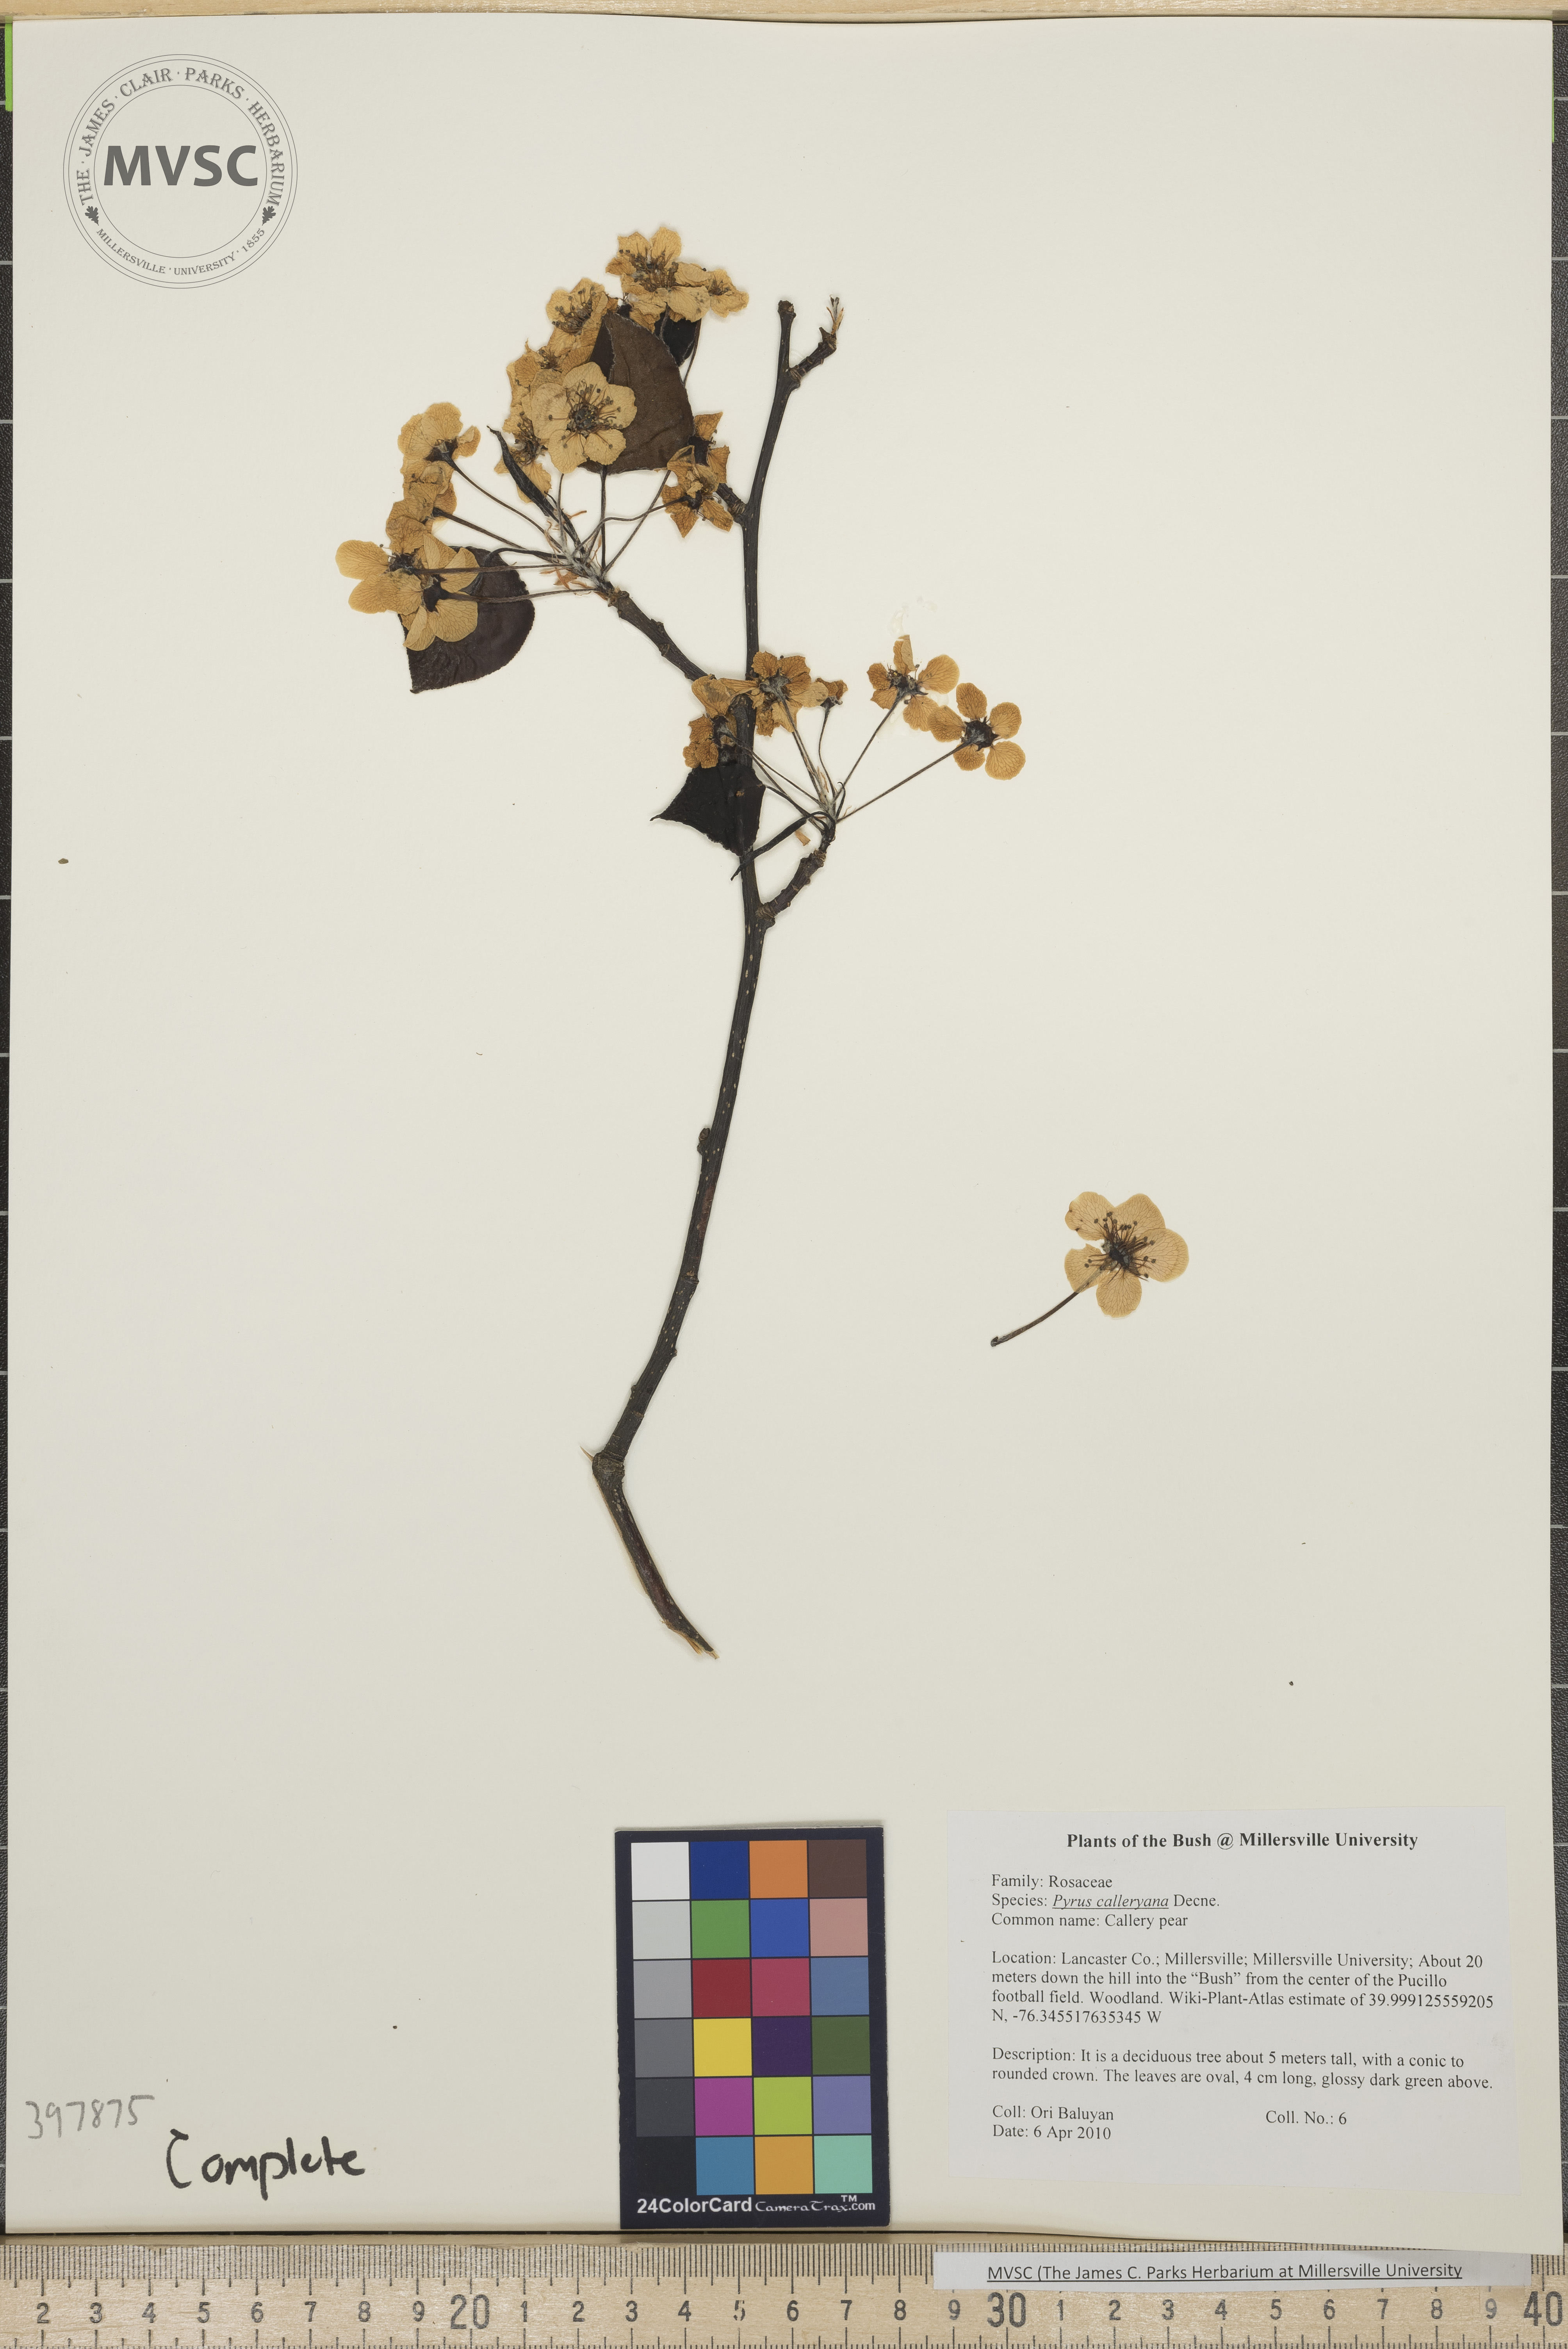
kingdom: Plantae
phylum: Tracheophyta
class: Magnoliopsida
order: Rosales
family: Rosaceae
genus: Pyrus
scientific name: Pyrus calleryana
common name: Callery pear
